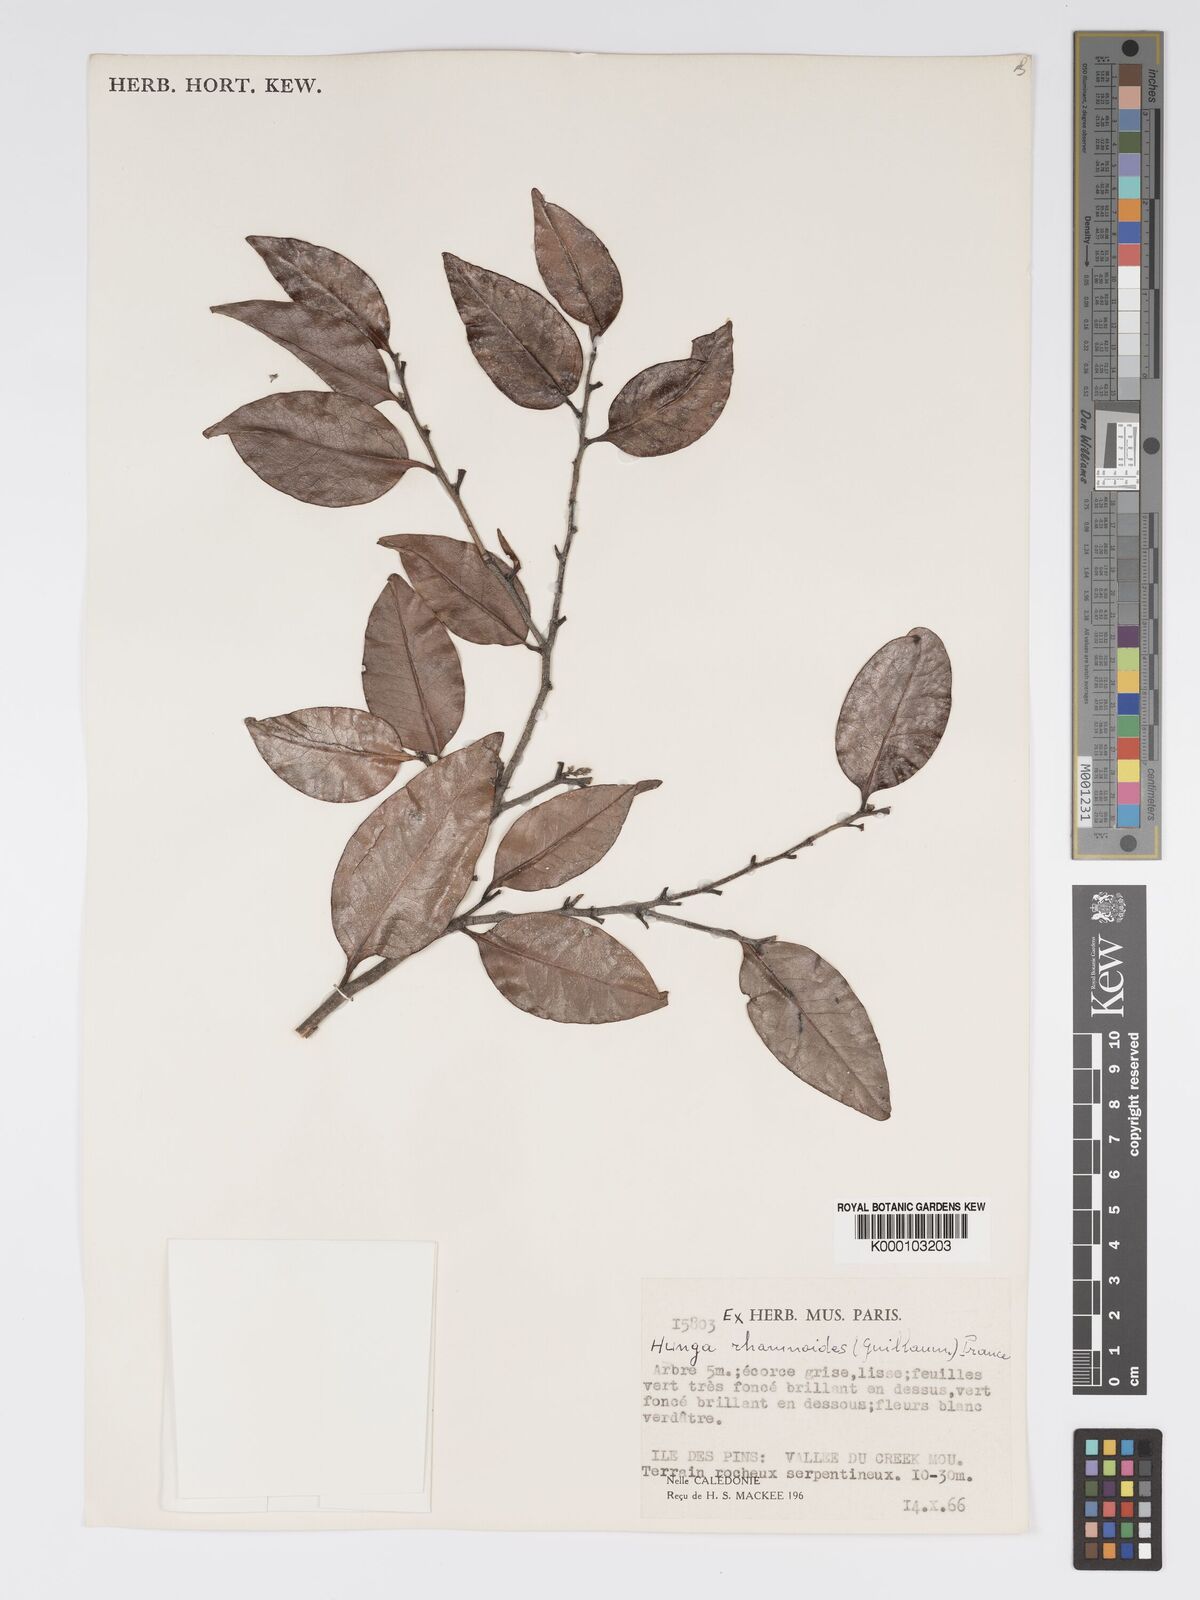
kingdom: Plantae
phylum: Tracheophyta
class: Magnoliopsida
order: Malpighiales
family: Chrysobalanaceae
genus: Hunga
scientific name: Hunga rhamnoides
